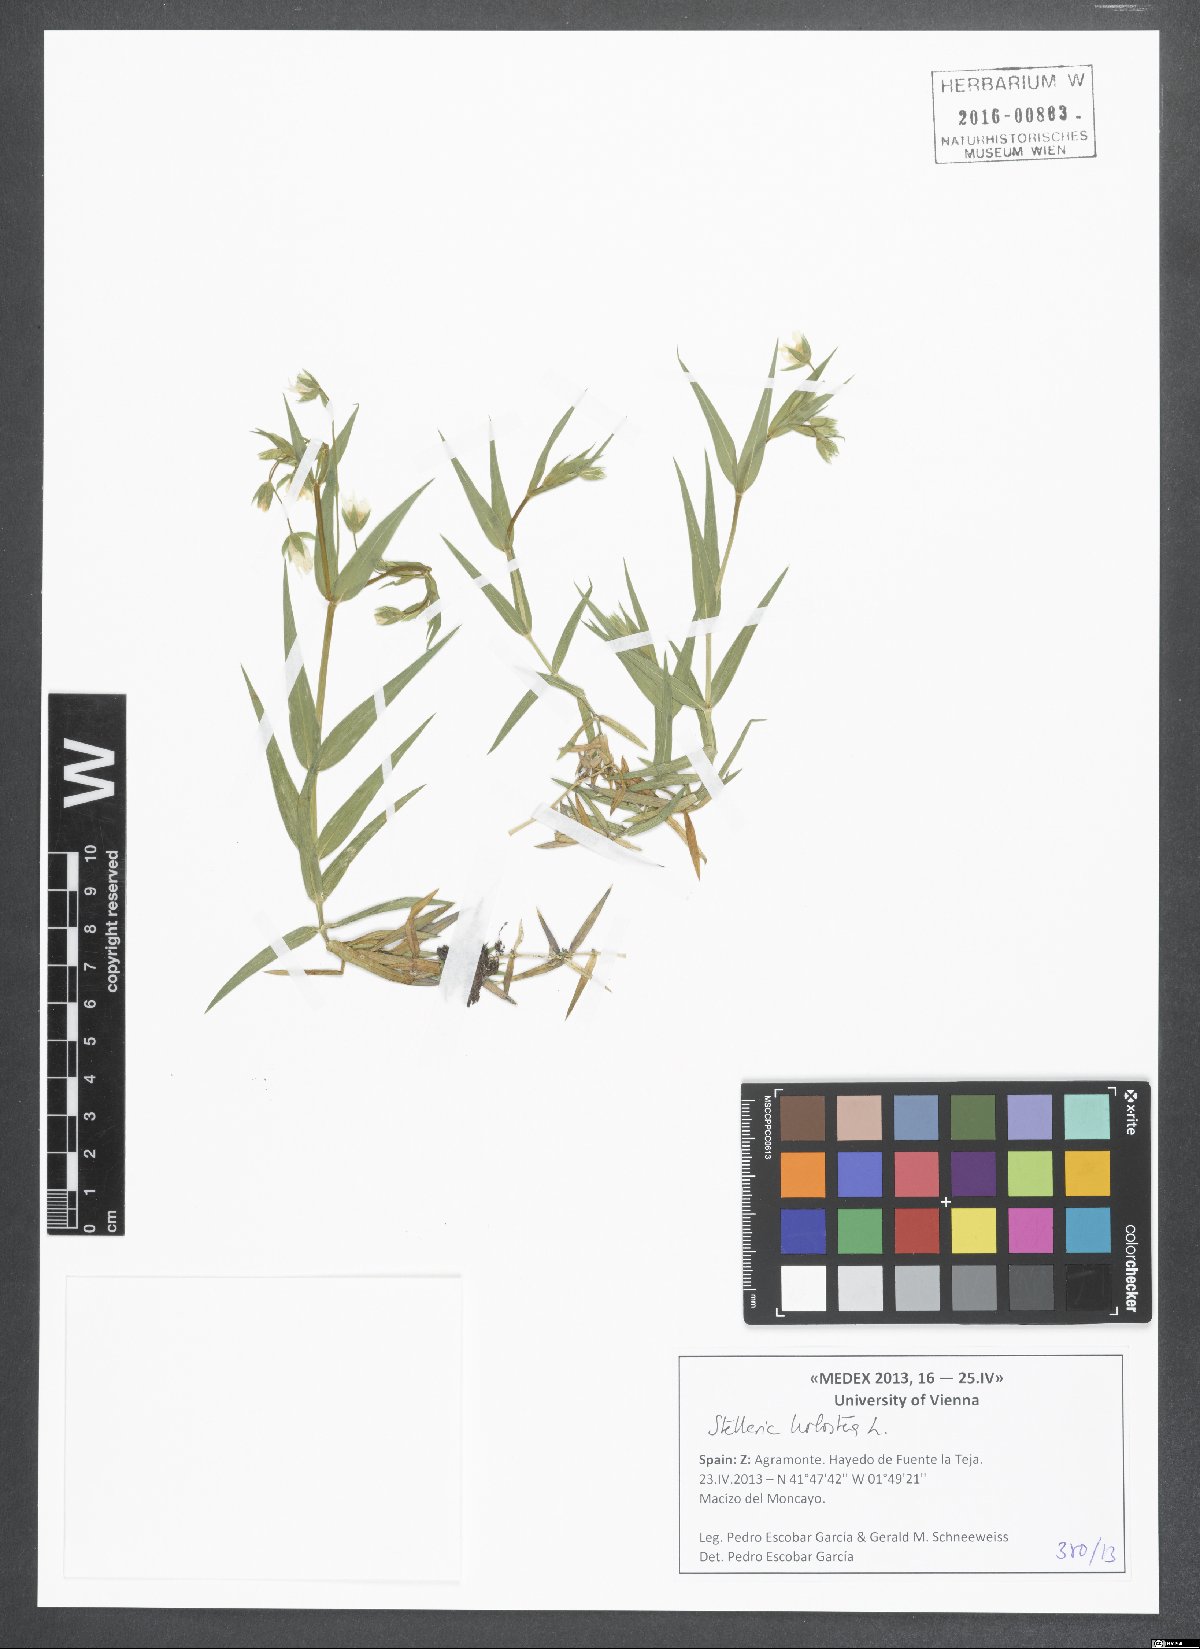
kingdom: Plantae
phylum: Tracheophyta
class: Magnoliopsida
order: Caryophyllales
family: Caryophyllaceae
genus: Rabelera
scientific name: Rabelera holostea
